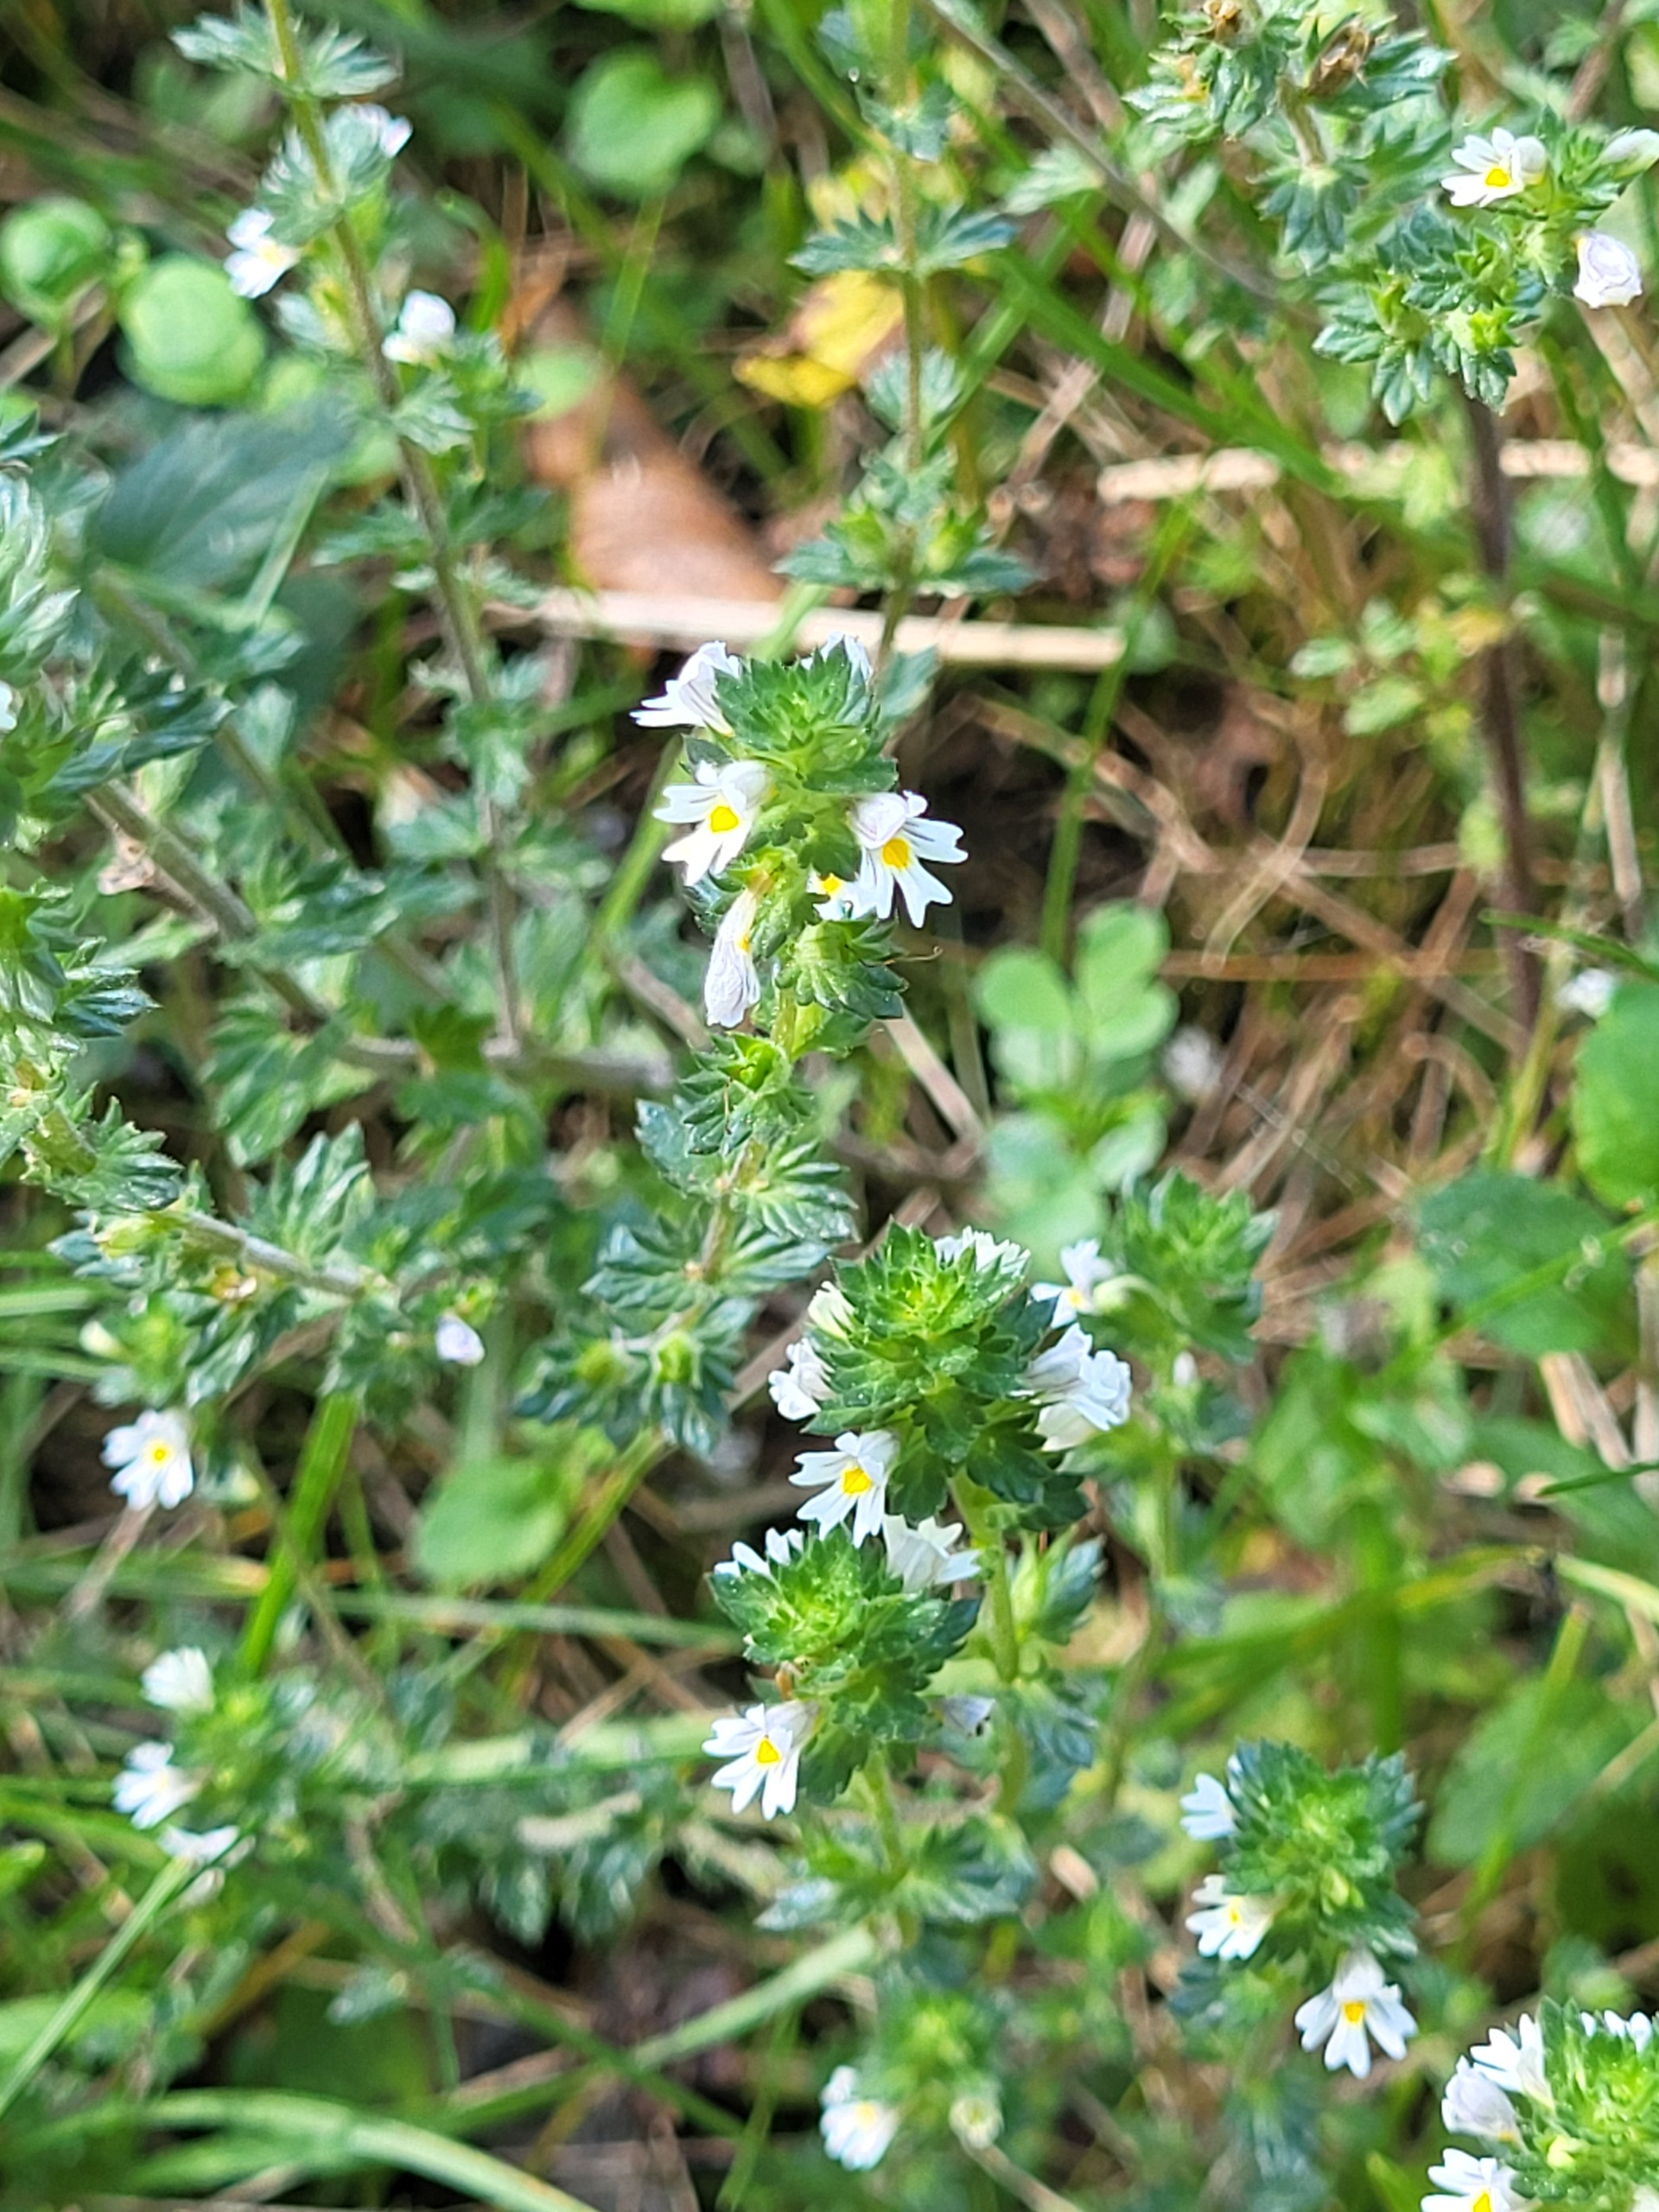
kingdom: Plantae
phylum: Tracheophyta
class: Magnoliopsida
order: Lamiales
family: Orobanchaceae
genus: Euphrasia
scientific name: Euphrasia nemorosa
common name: Kort øjentrøst
